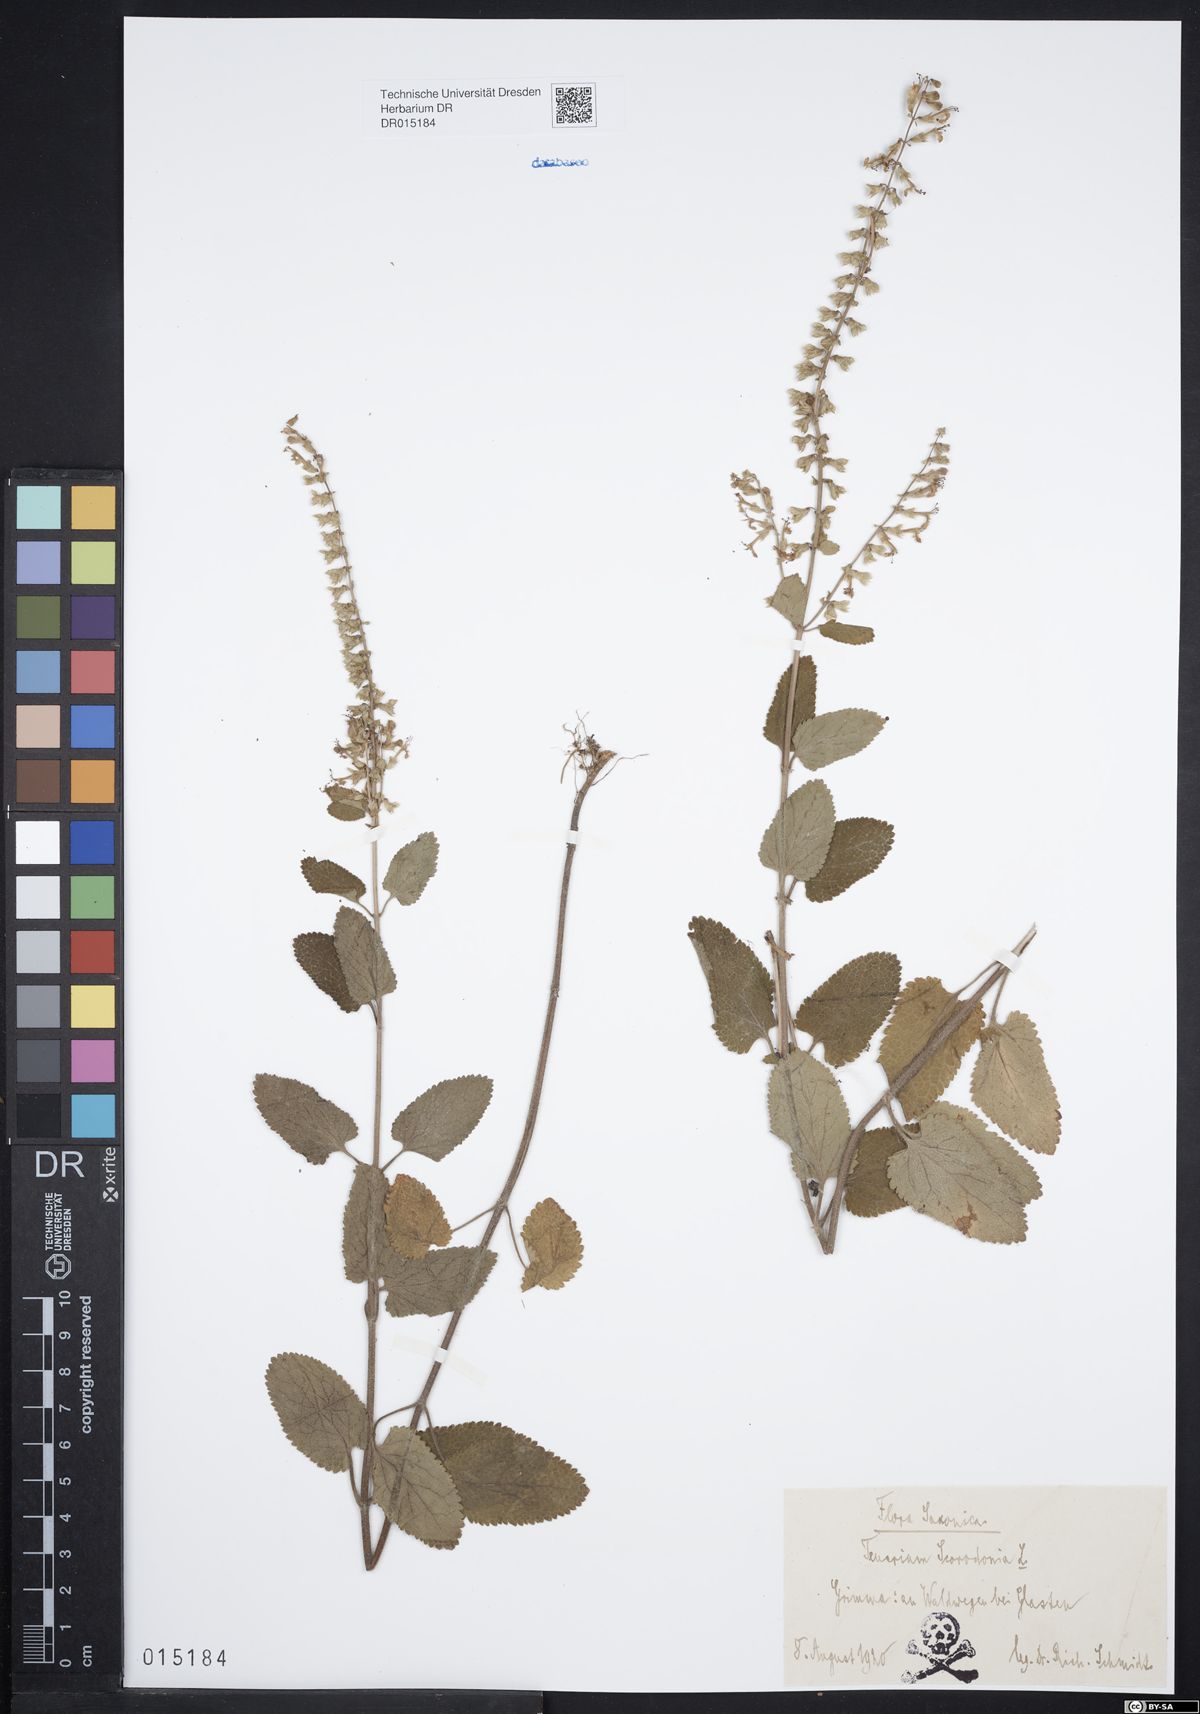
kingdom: Plantae
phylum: Tracheophyta
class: Magnoliopsida
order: Lamiales
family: Lamiaceae
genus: Teucrium
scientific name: Teucrium scorodonia
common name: Woodland germander
